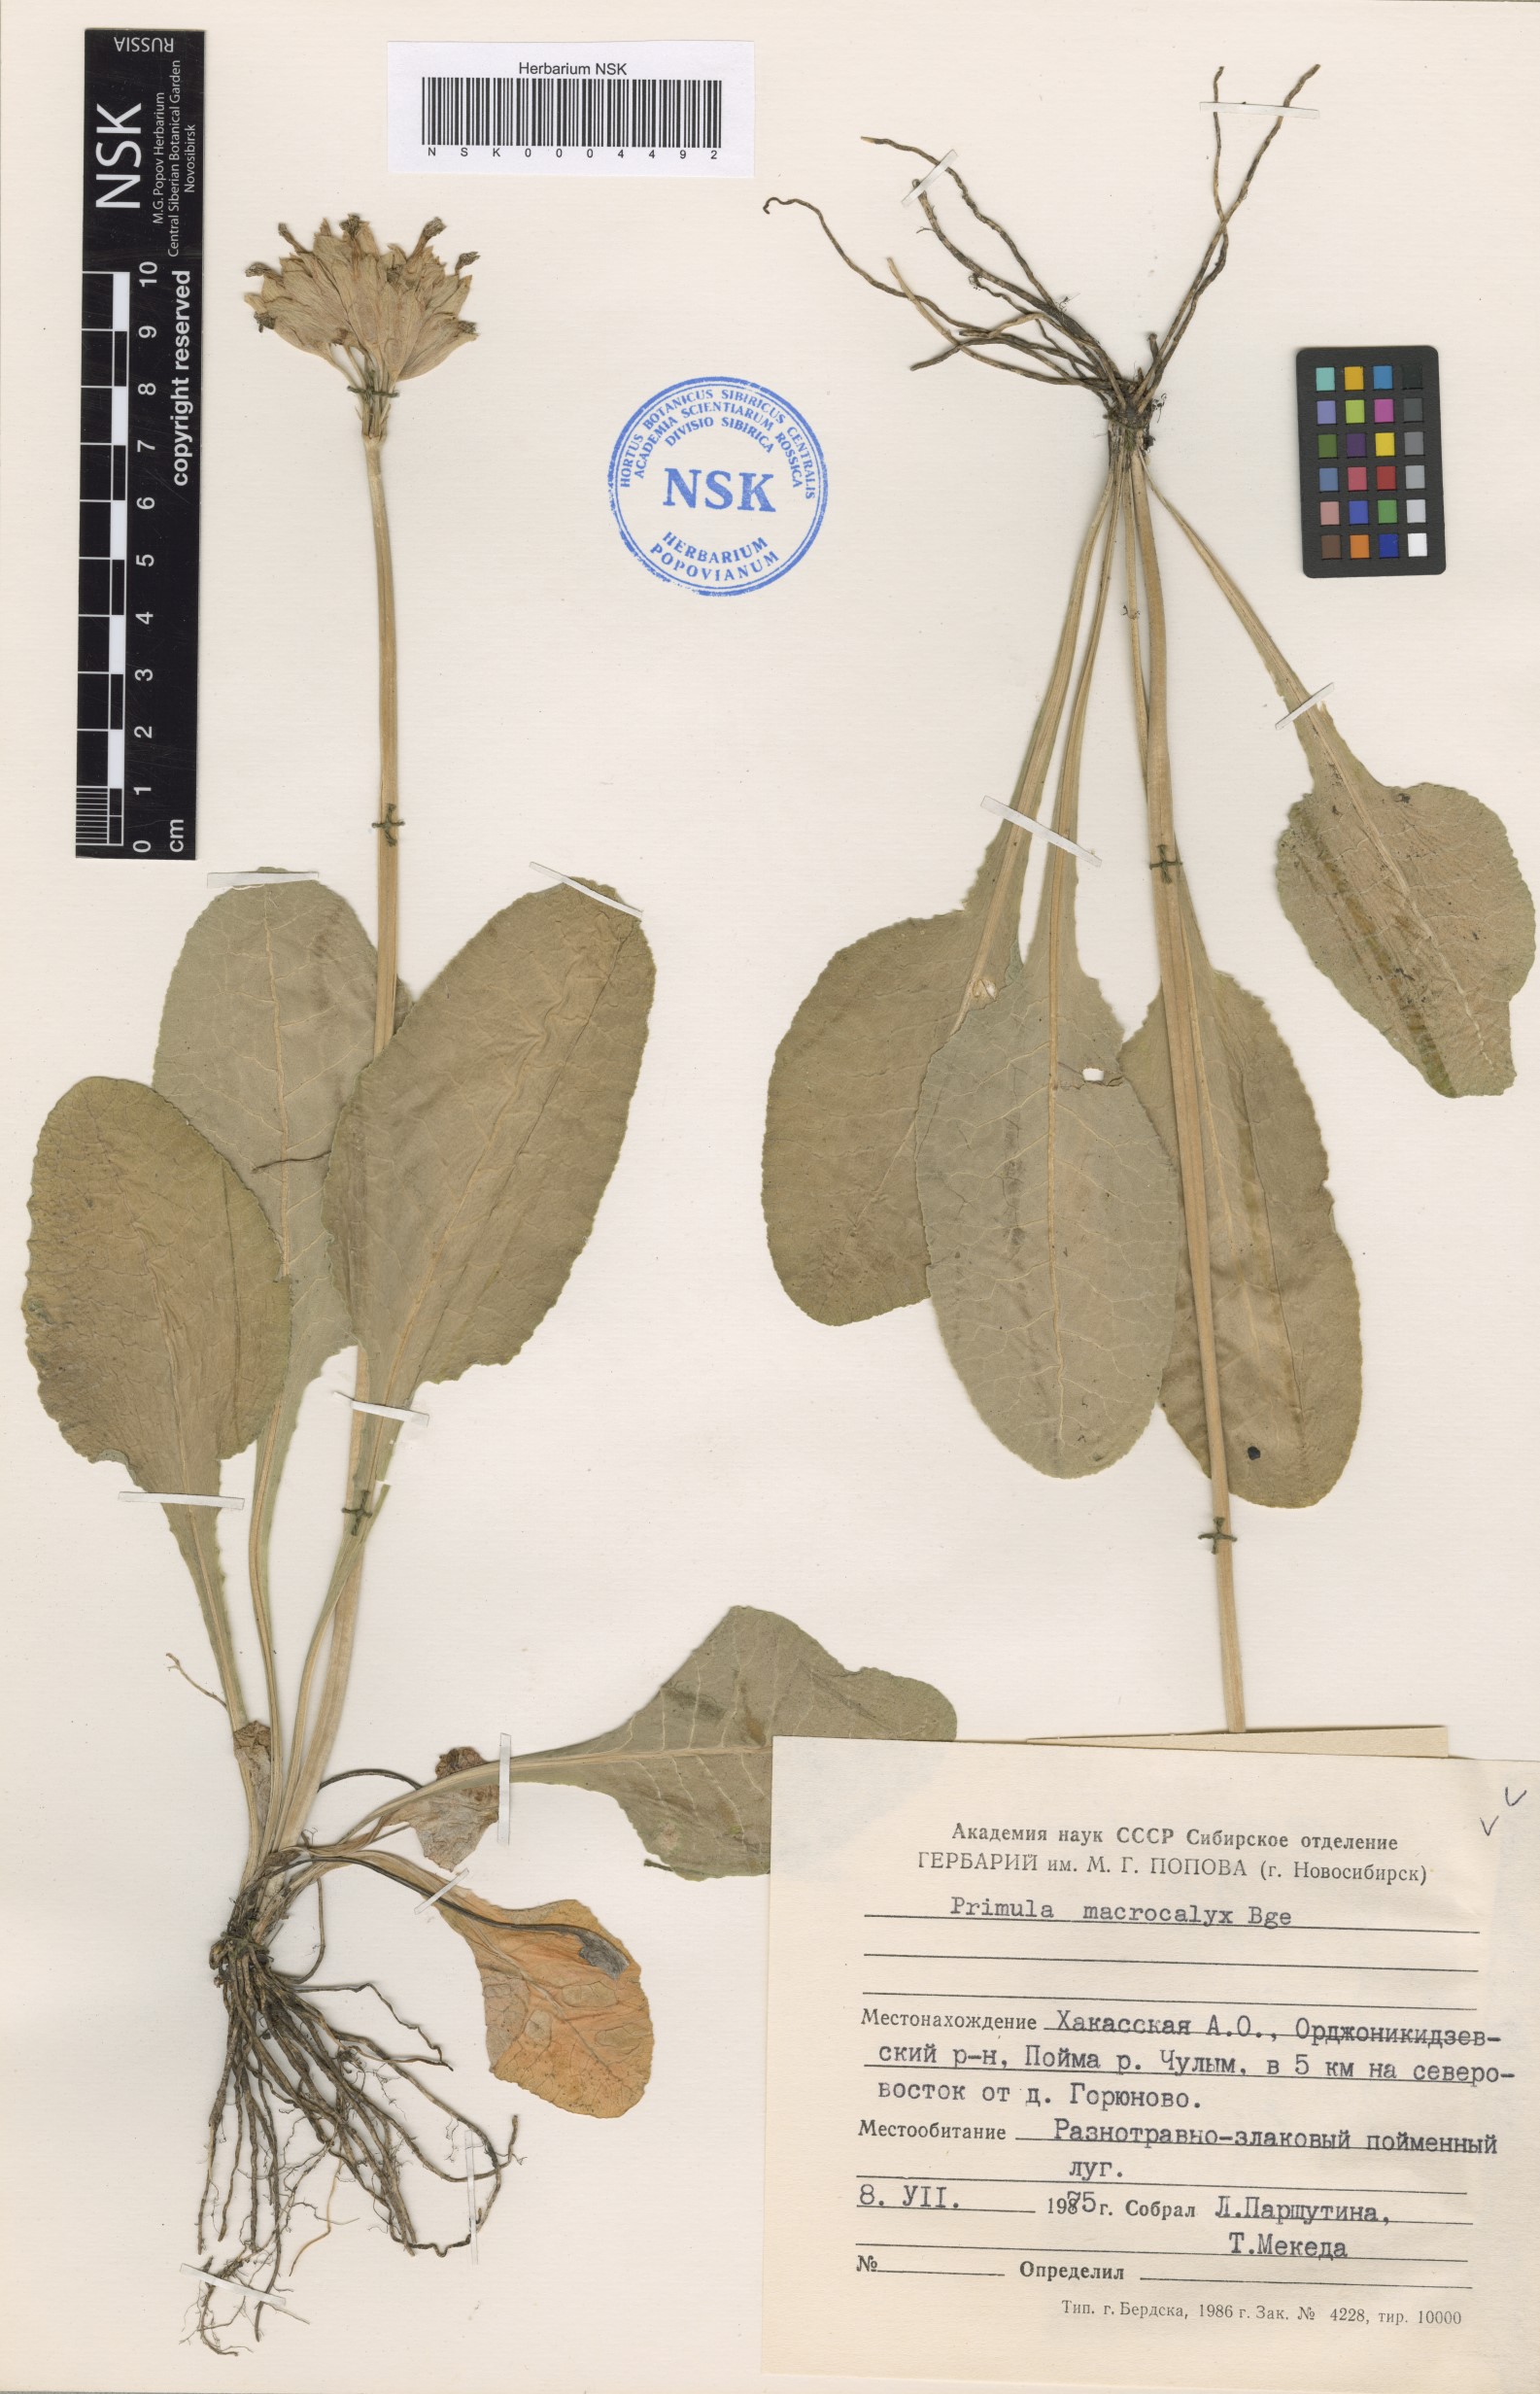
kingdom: Plantae
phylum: Tracheophyta
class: Magnoliopsida
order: Ericales
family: Primulaceae
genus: Primula
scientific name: Primula veris
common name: Cowslip
